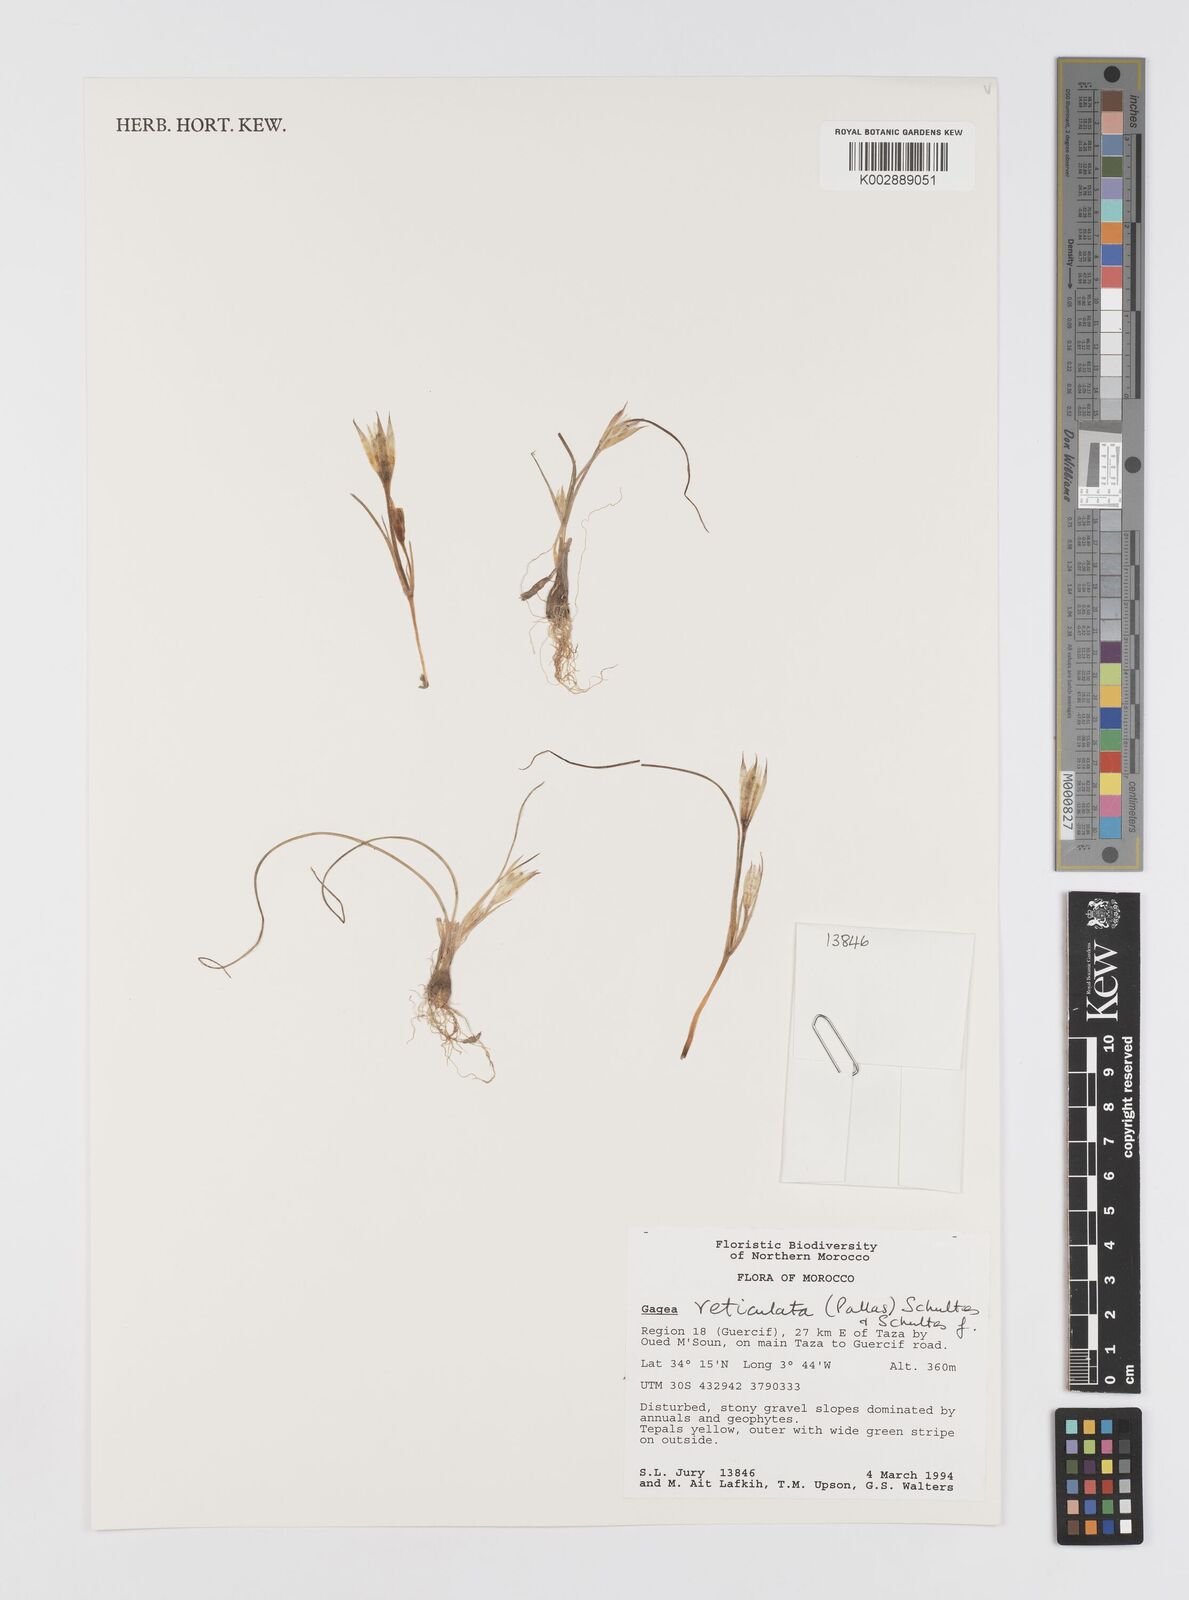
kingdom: Plantae
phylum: Tracheophyta
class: Liliopsida
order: Liliales
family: Liliaceae
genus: Gagea
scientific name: Gagea reticulata
